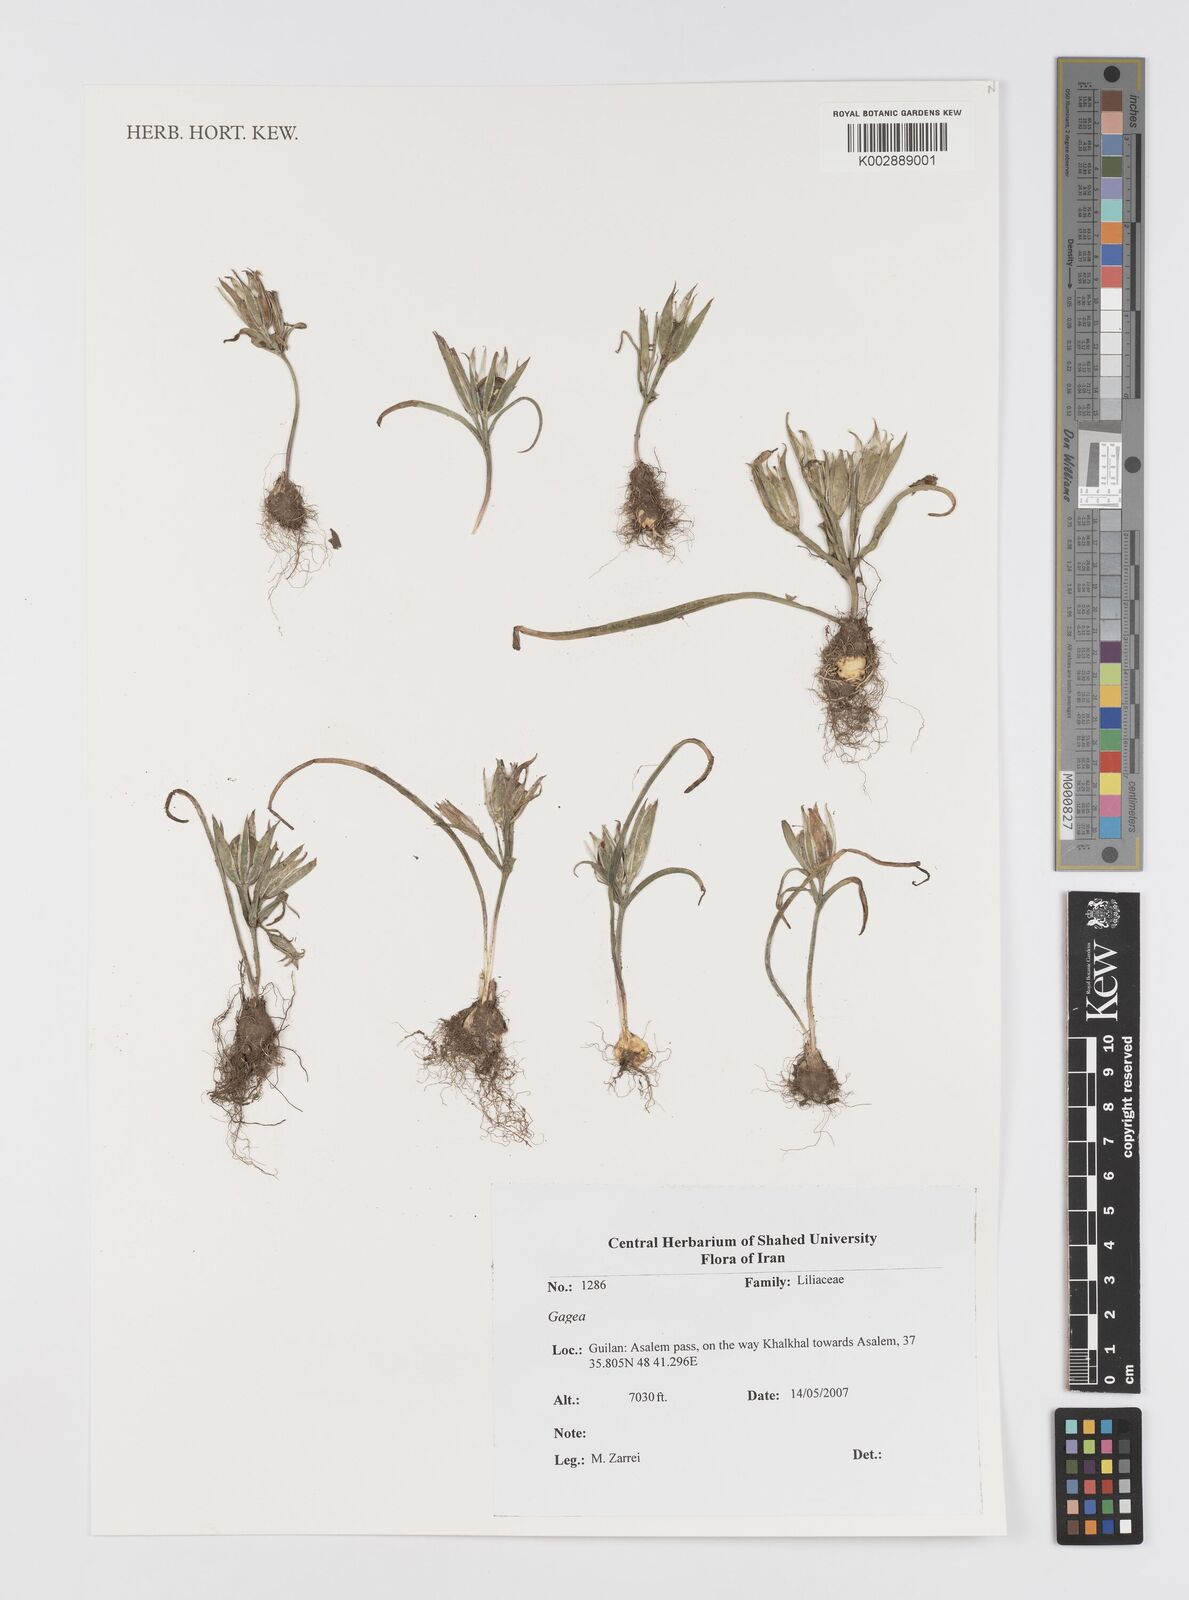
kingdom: Plantae
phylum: Tracheophyta
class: Liliopsida
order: Liliales
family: Liliaceae
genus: Gagea
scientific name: Gagea
